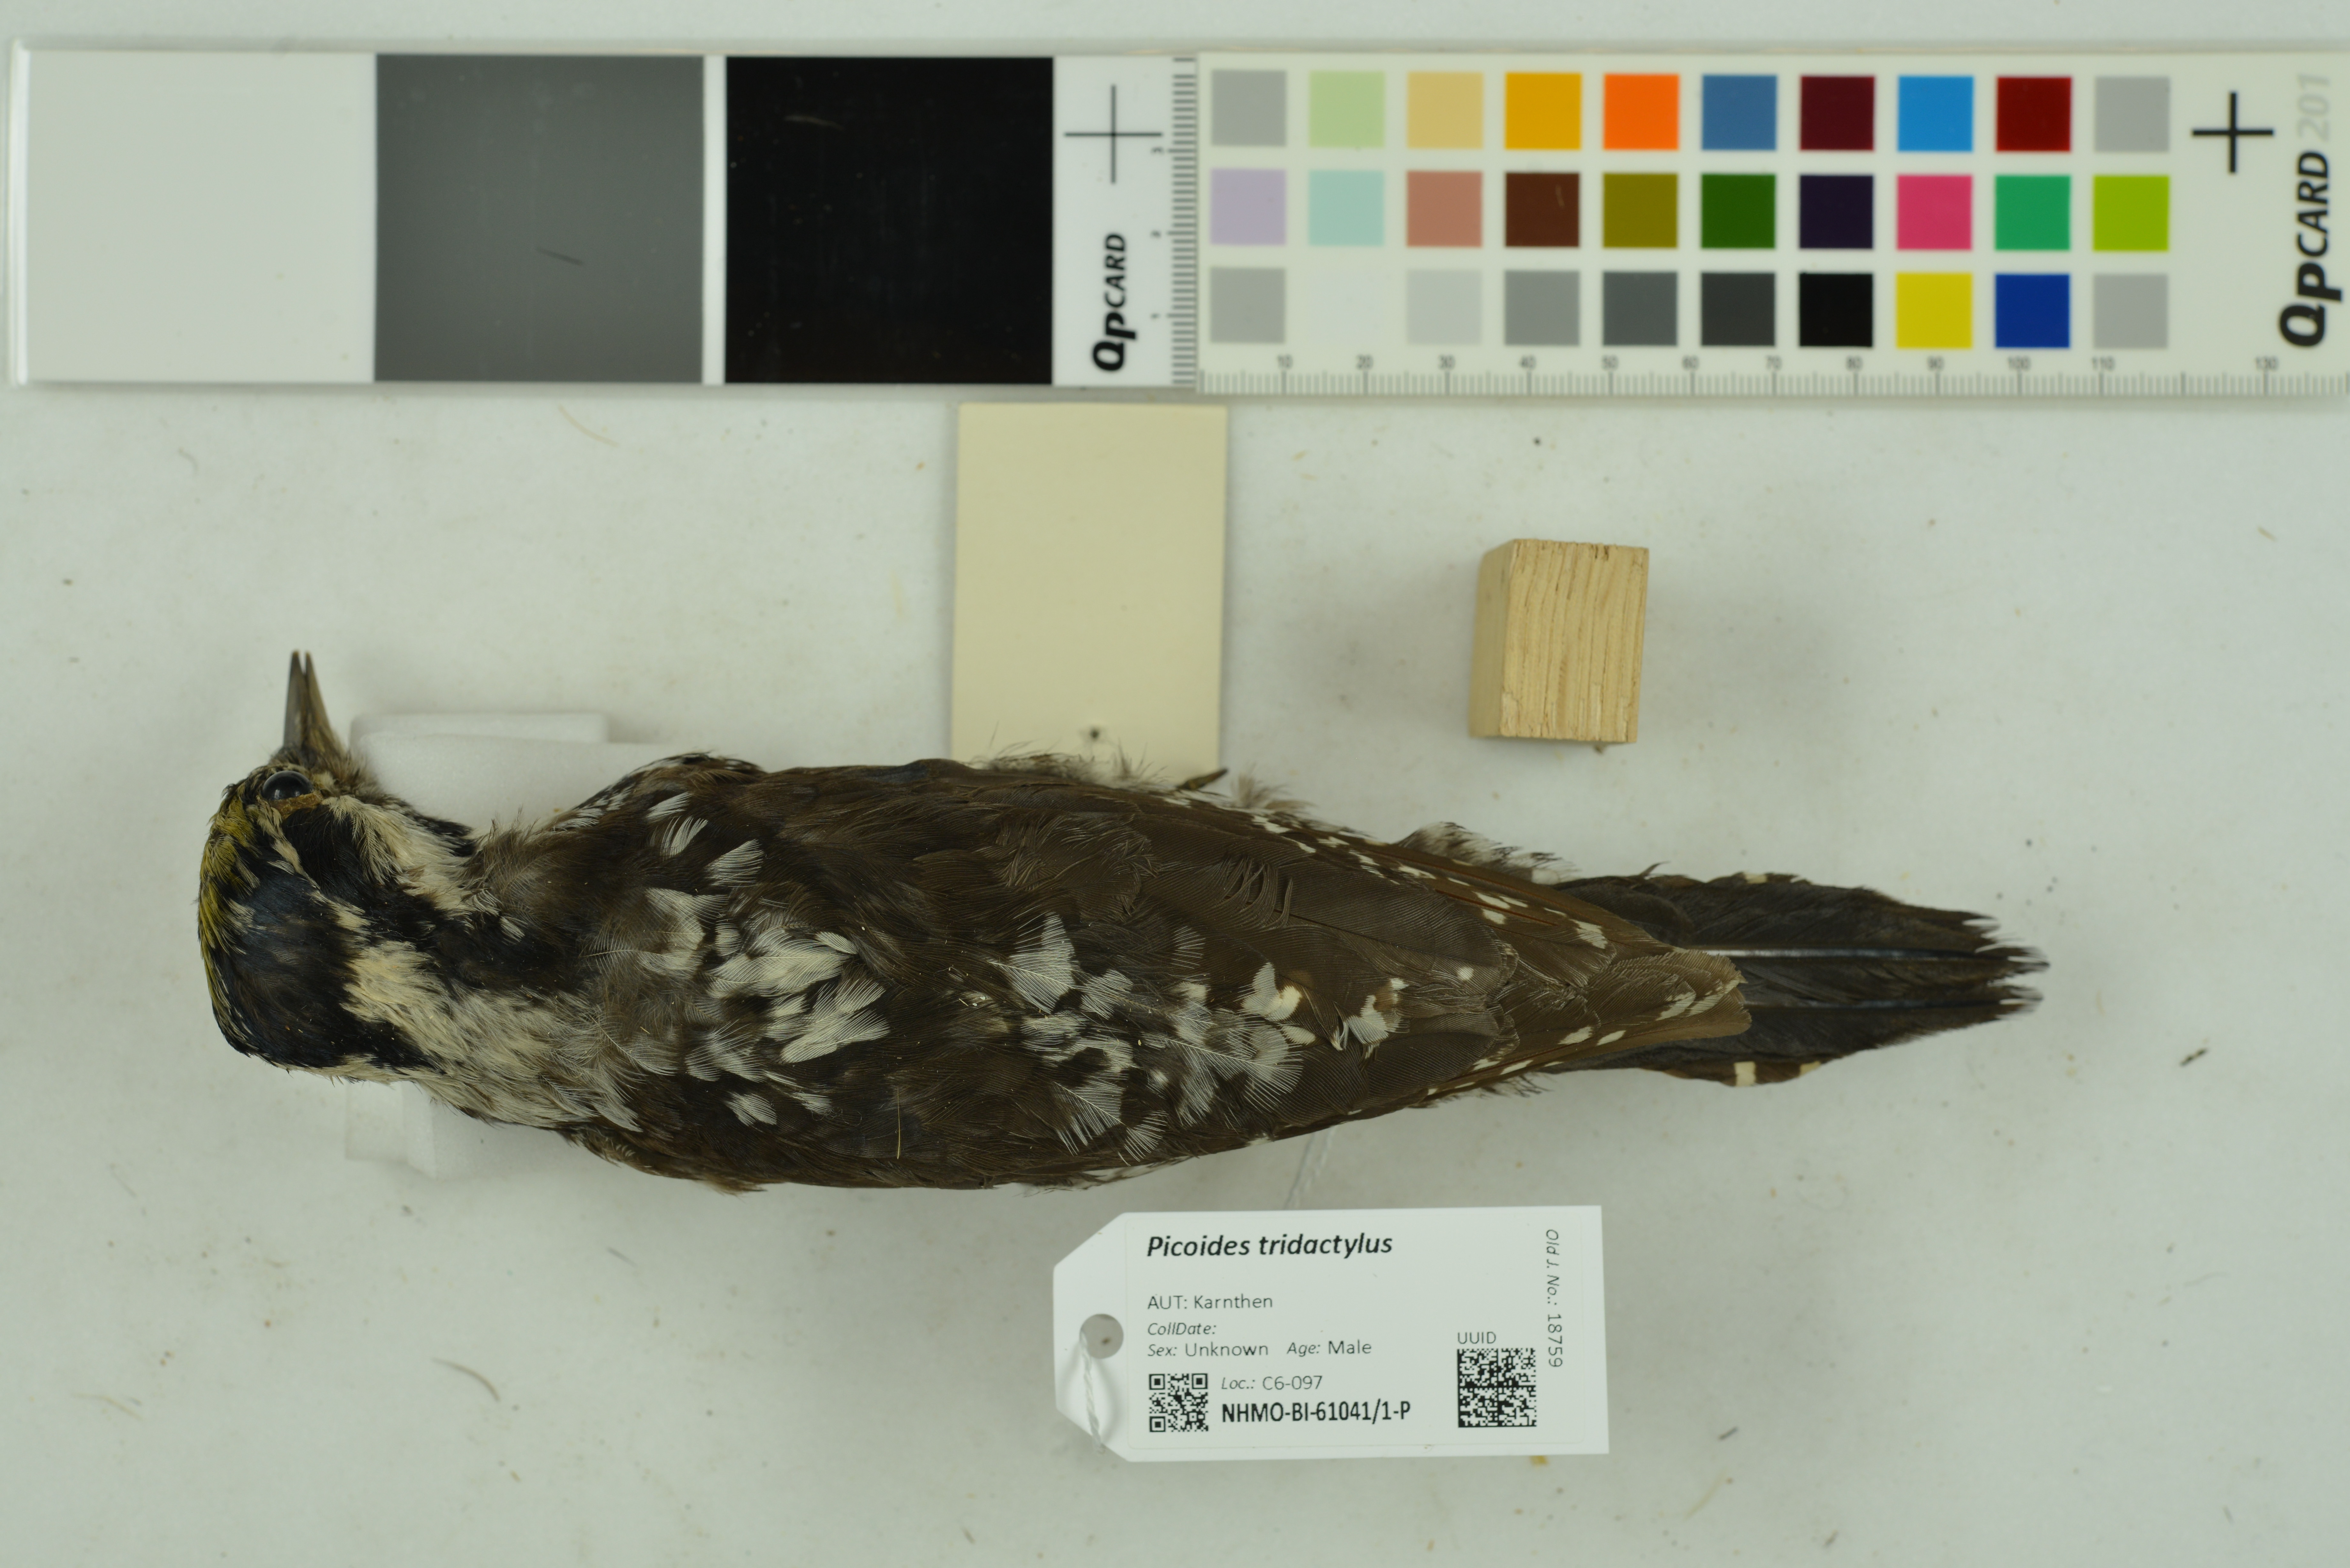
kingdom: Animalia
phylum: Chordata
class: Aves
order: Piciformes
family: Picidae
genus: Picoides
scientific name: Picoides tridactylus
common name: Eurasian three-toed woodpecker
